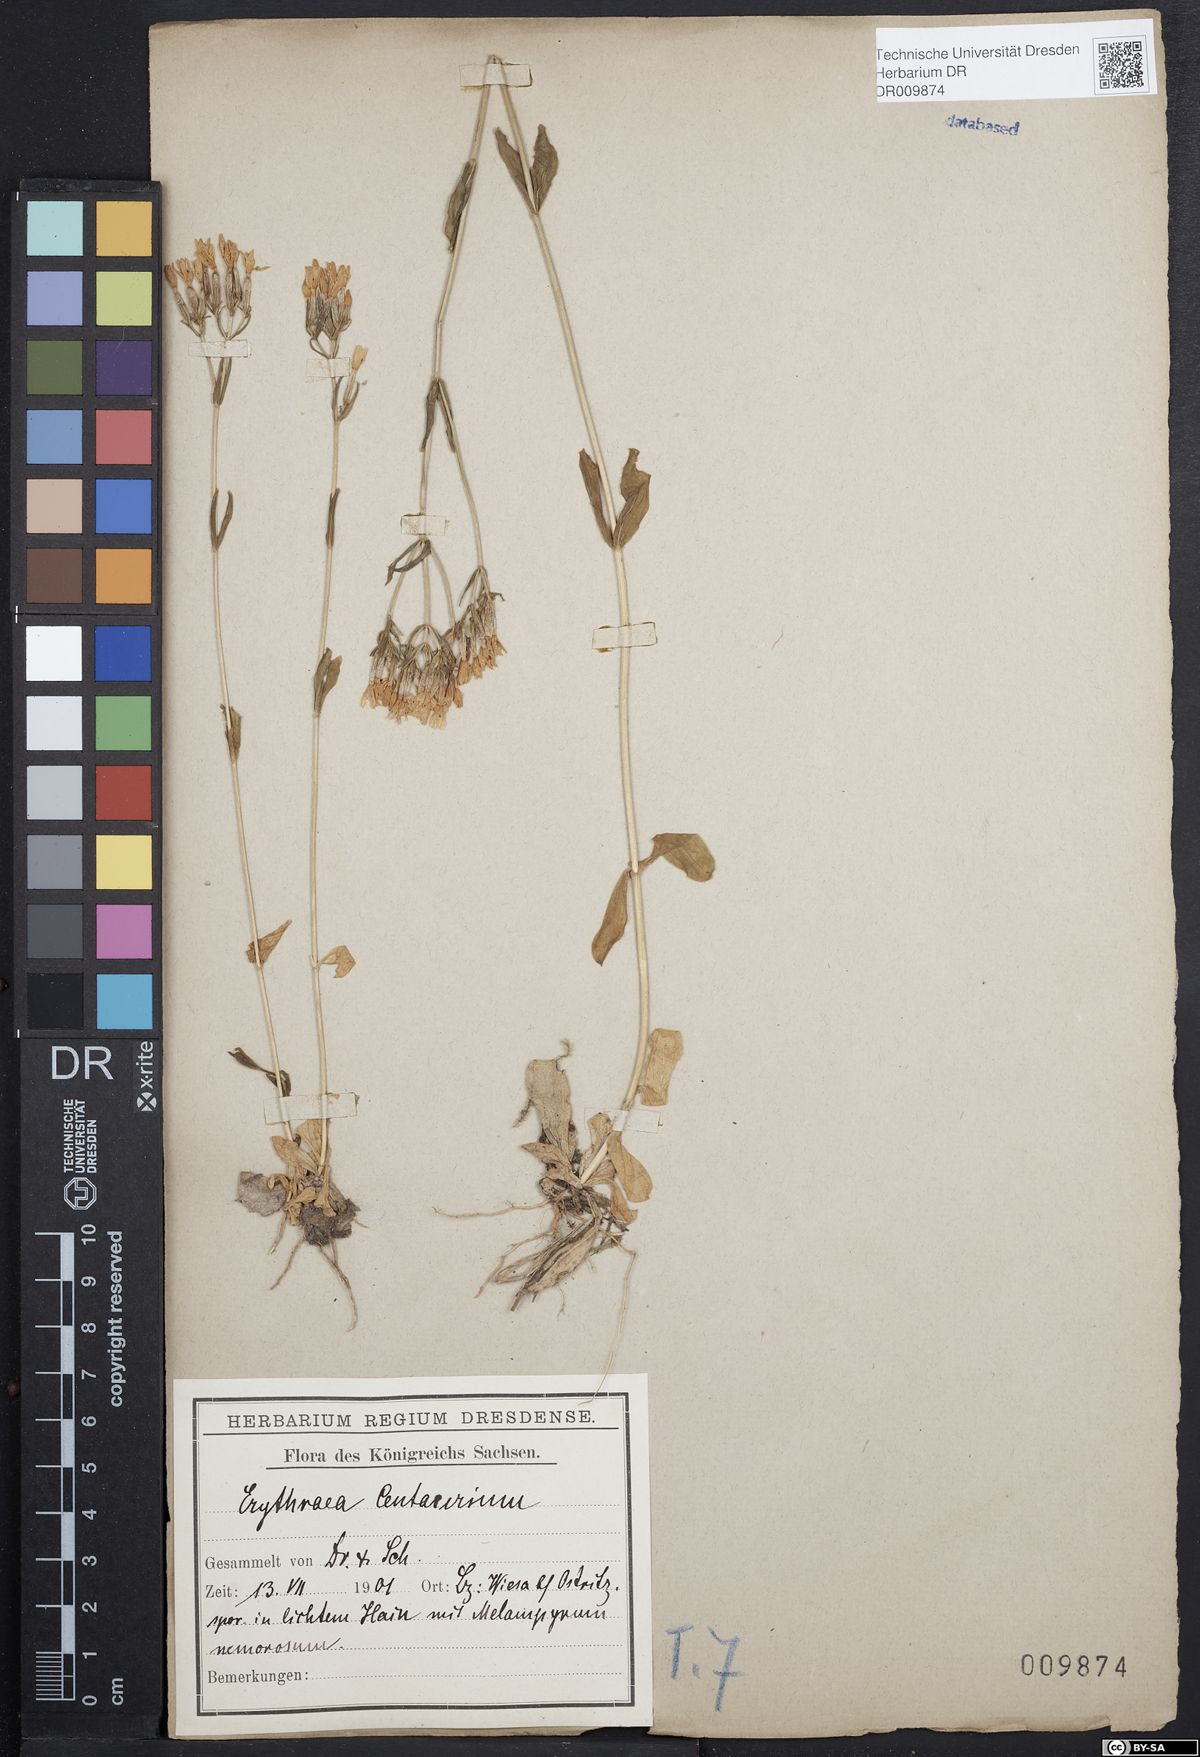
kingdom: Plantae
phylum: Tracheophyta
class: Magnoliopsida
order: Gentianales
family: Gentianaceae
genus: Centaurium
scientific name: Centaurium erythraea
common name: Common centaury
